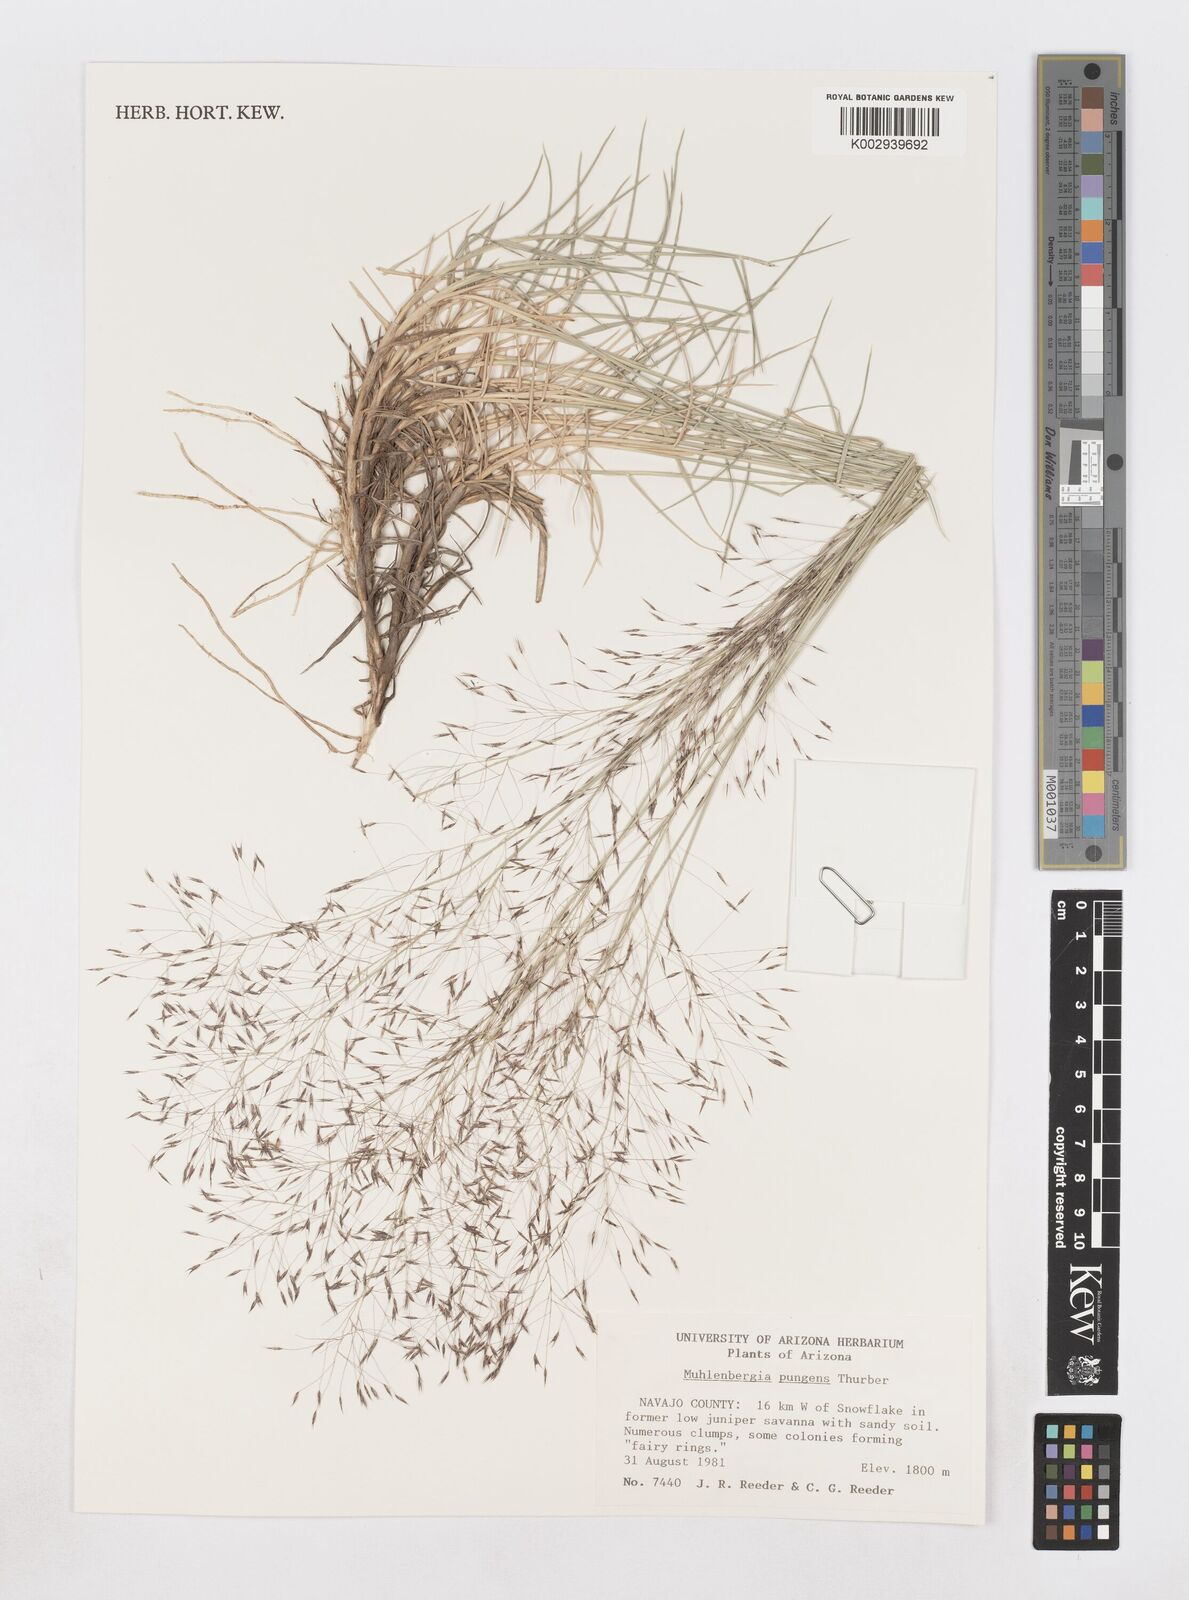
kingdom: Plantae
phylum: Tracheophyta
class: Liliopsida
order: Poales
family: Poaceae
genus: Muhlenbergia
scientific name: Muhlenbergia pungens
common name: Sandhill muhly
